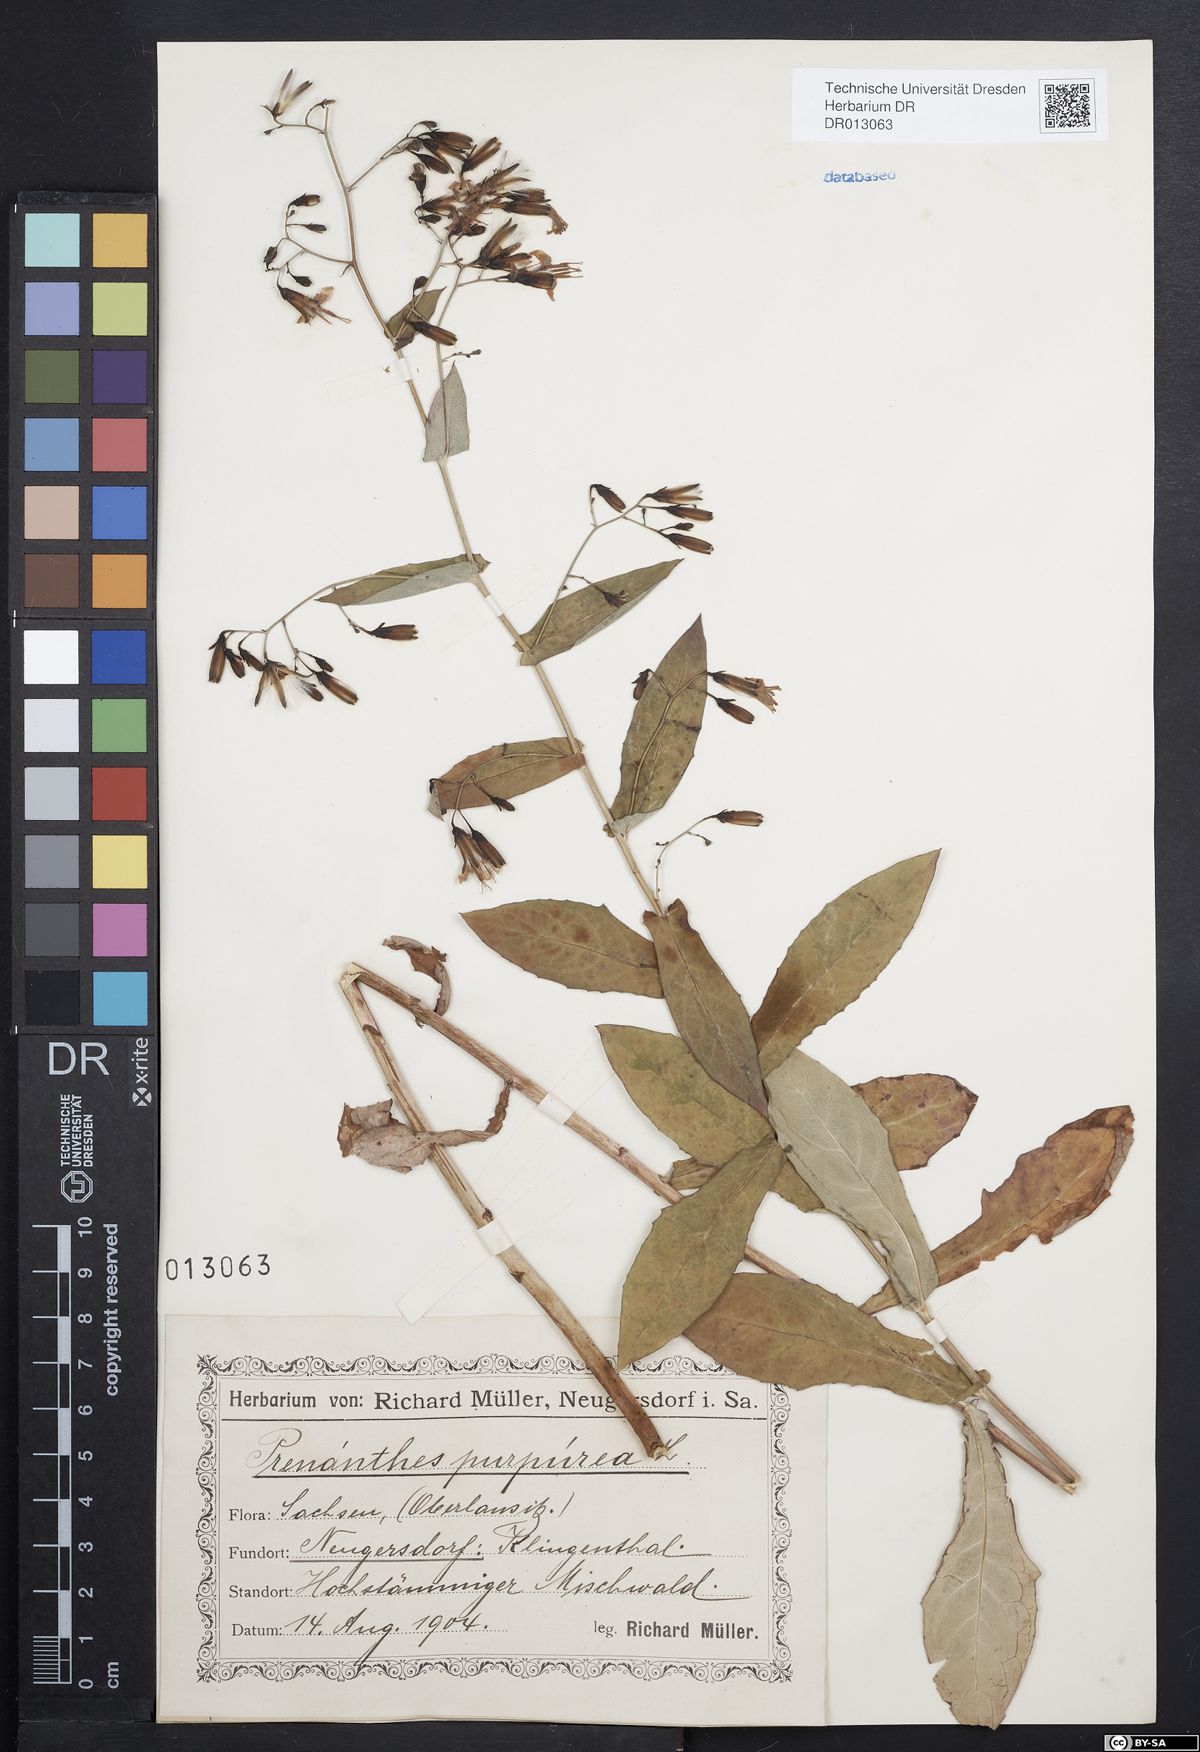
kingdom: Plantae
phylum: Tracheophyta
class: Magnoliopsida
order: Asterales
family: Asteraceae
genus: Prenanthes
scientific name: Prenanthes purpurea
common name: Purple lettuce
